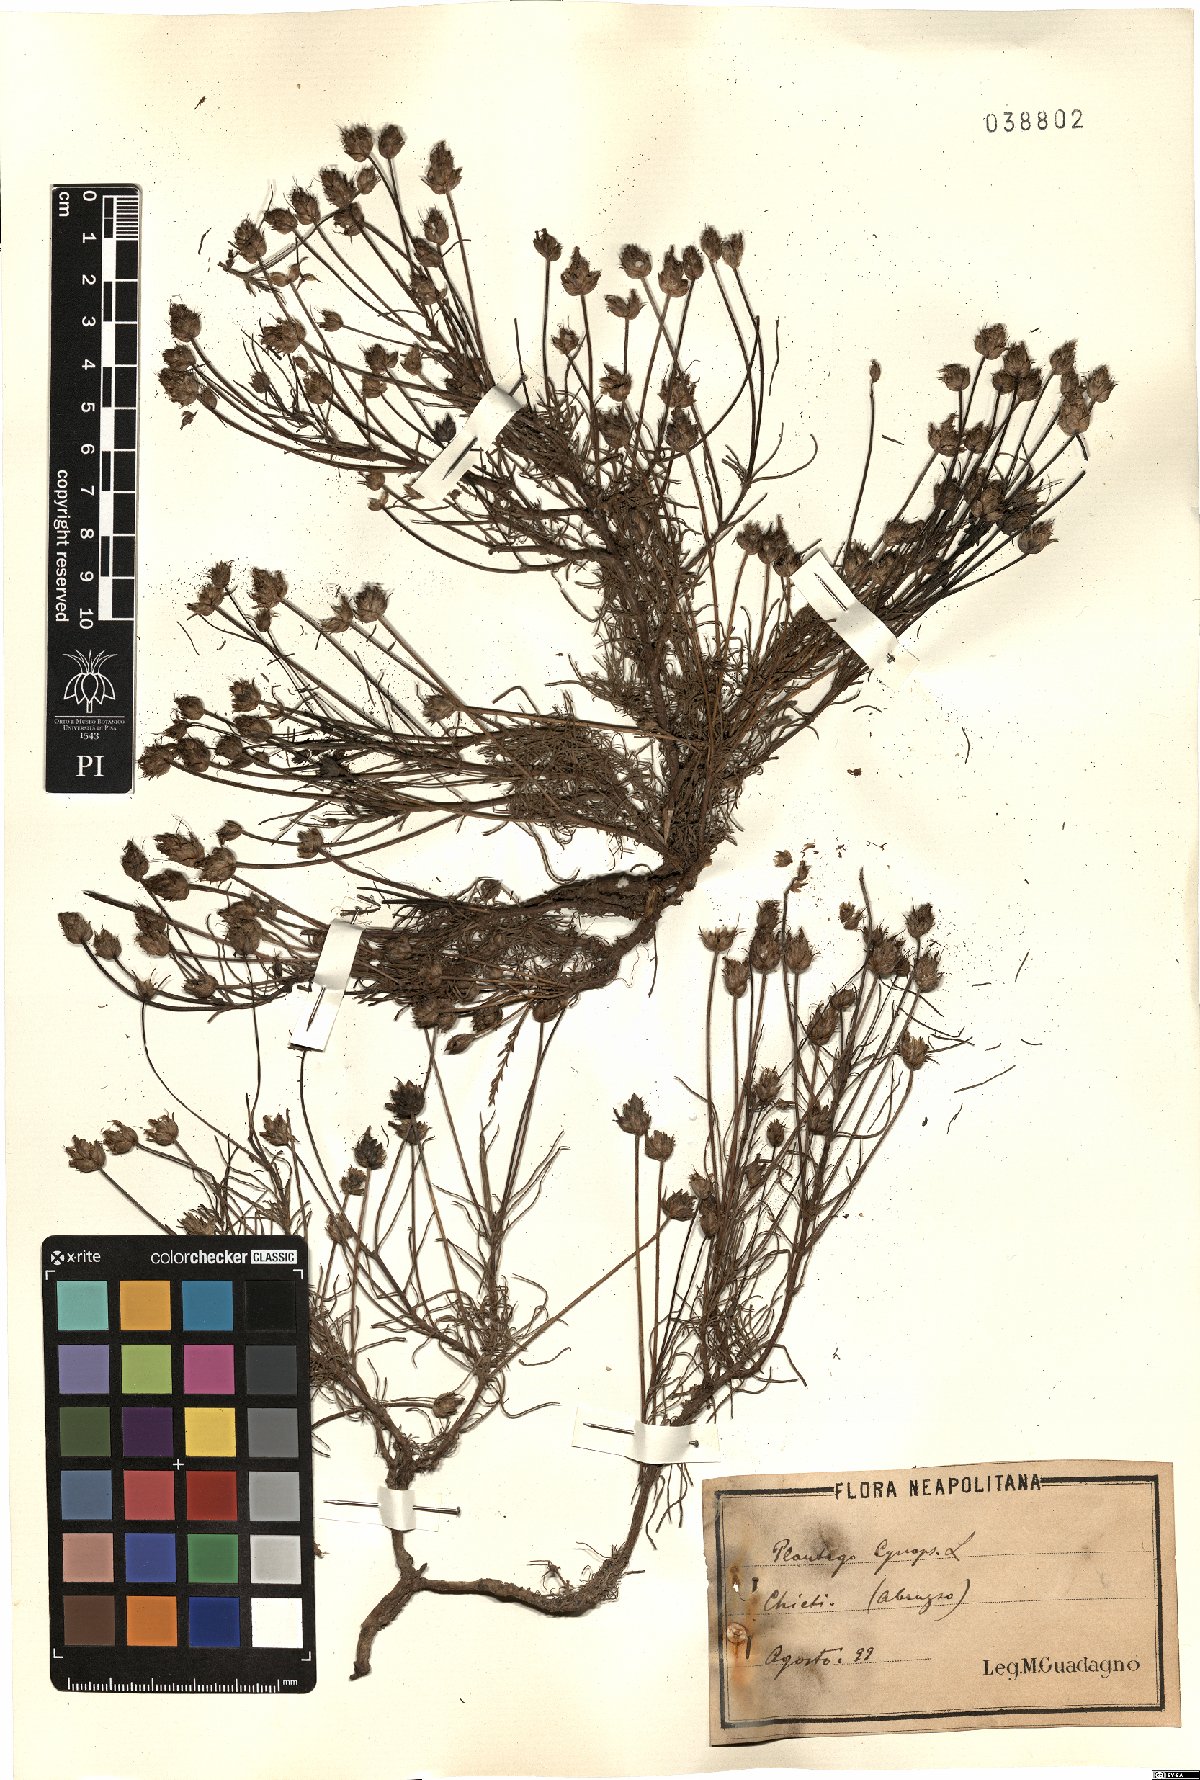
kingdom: Plantae
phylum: Tracheophyta
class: Magnoliopsida
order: Lamiales
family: Plantaginaceae
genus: Plantago
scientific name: Plantago sempervirens
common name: Shrubby plantain
